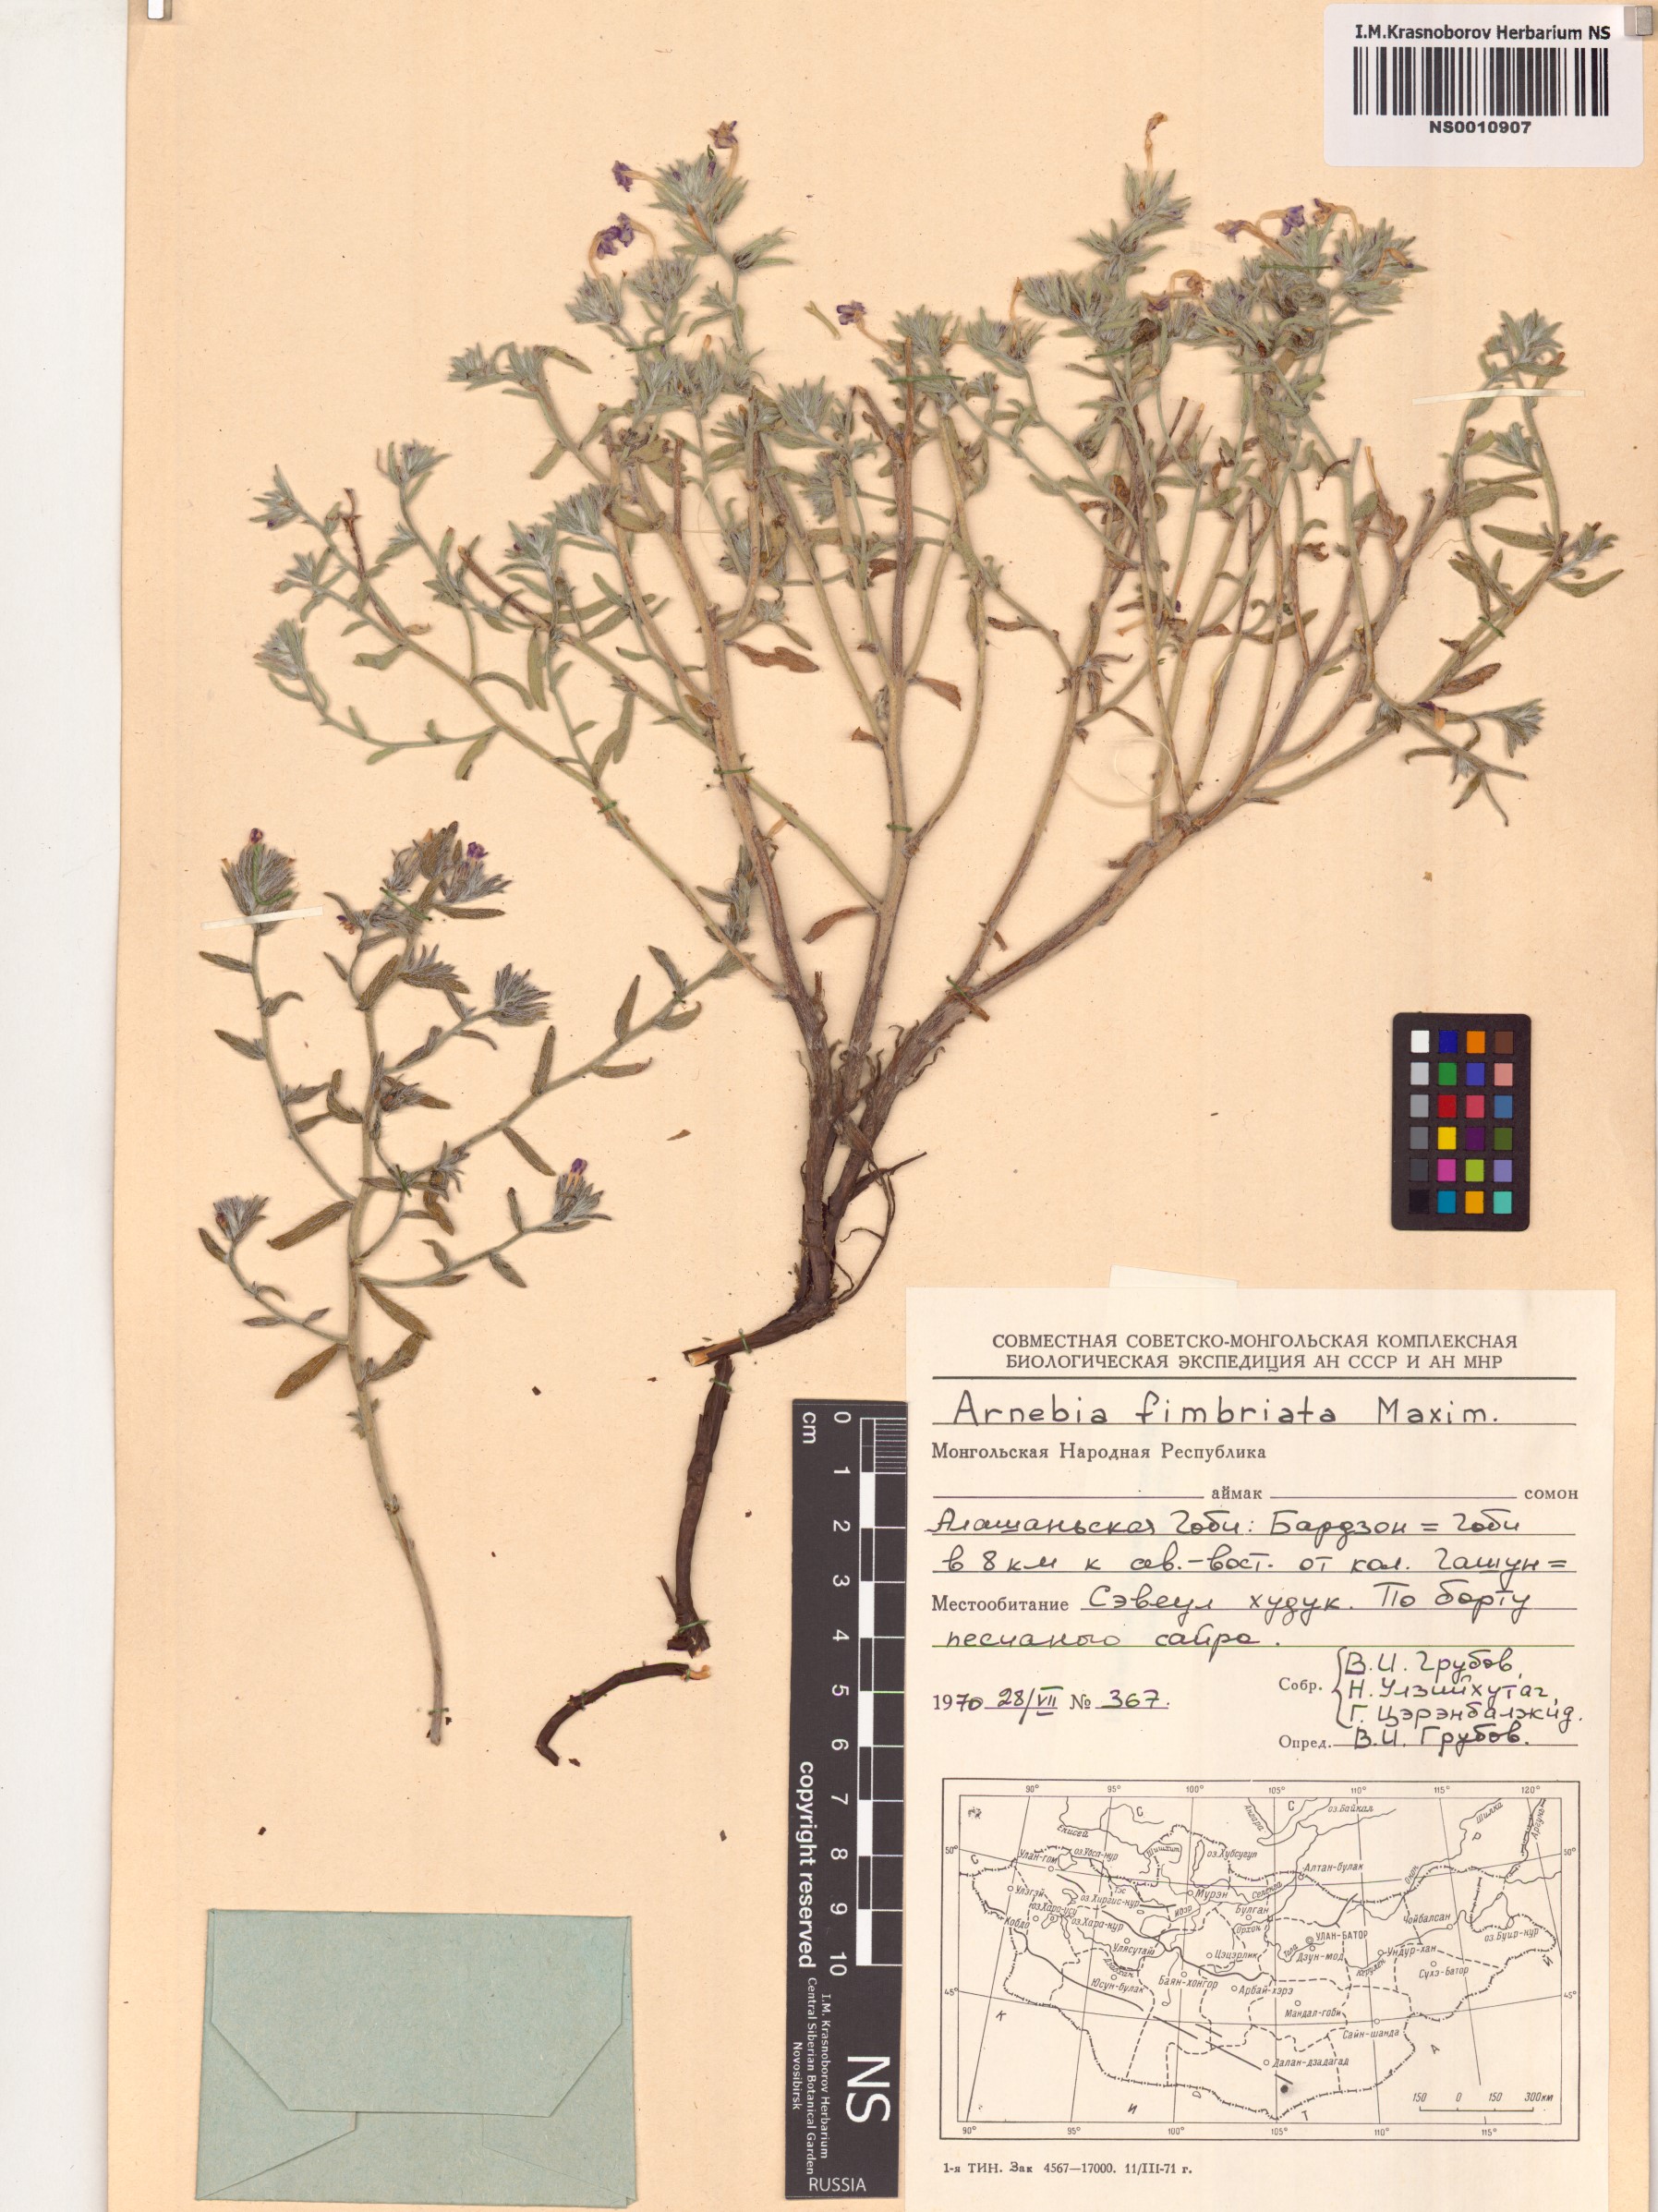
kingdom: Plantae
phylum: Tracheophyta
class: Magnoliopsida
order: Boraginales
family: Boraginaceae
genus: Arnebia
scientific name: Arnebia fimbriata
